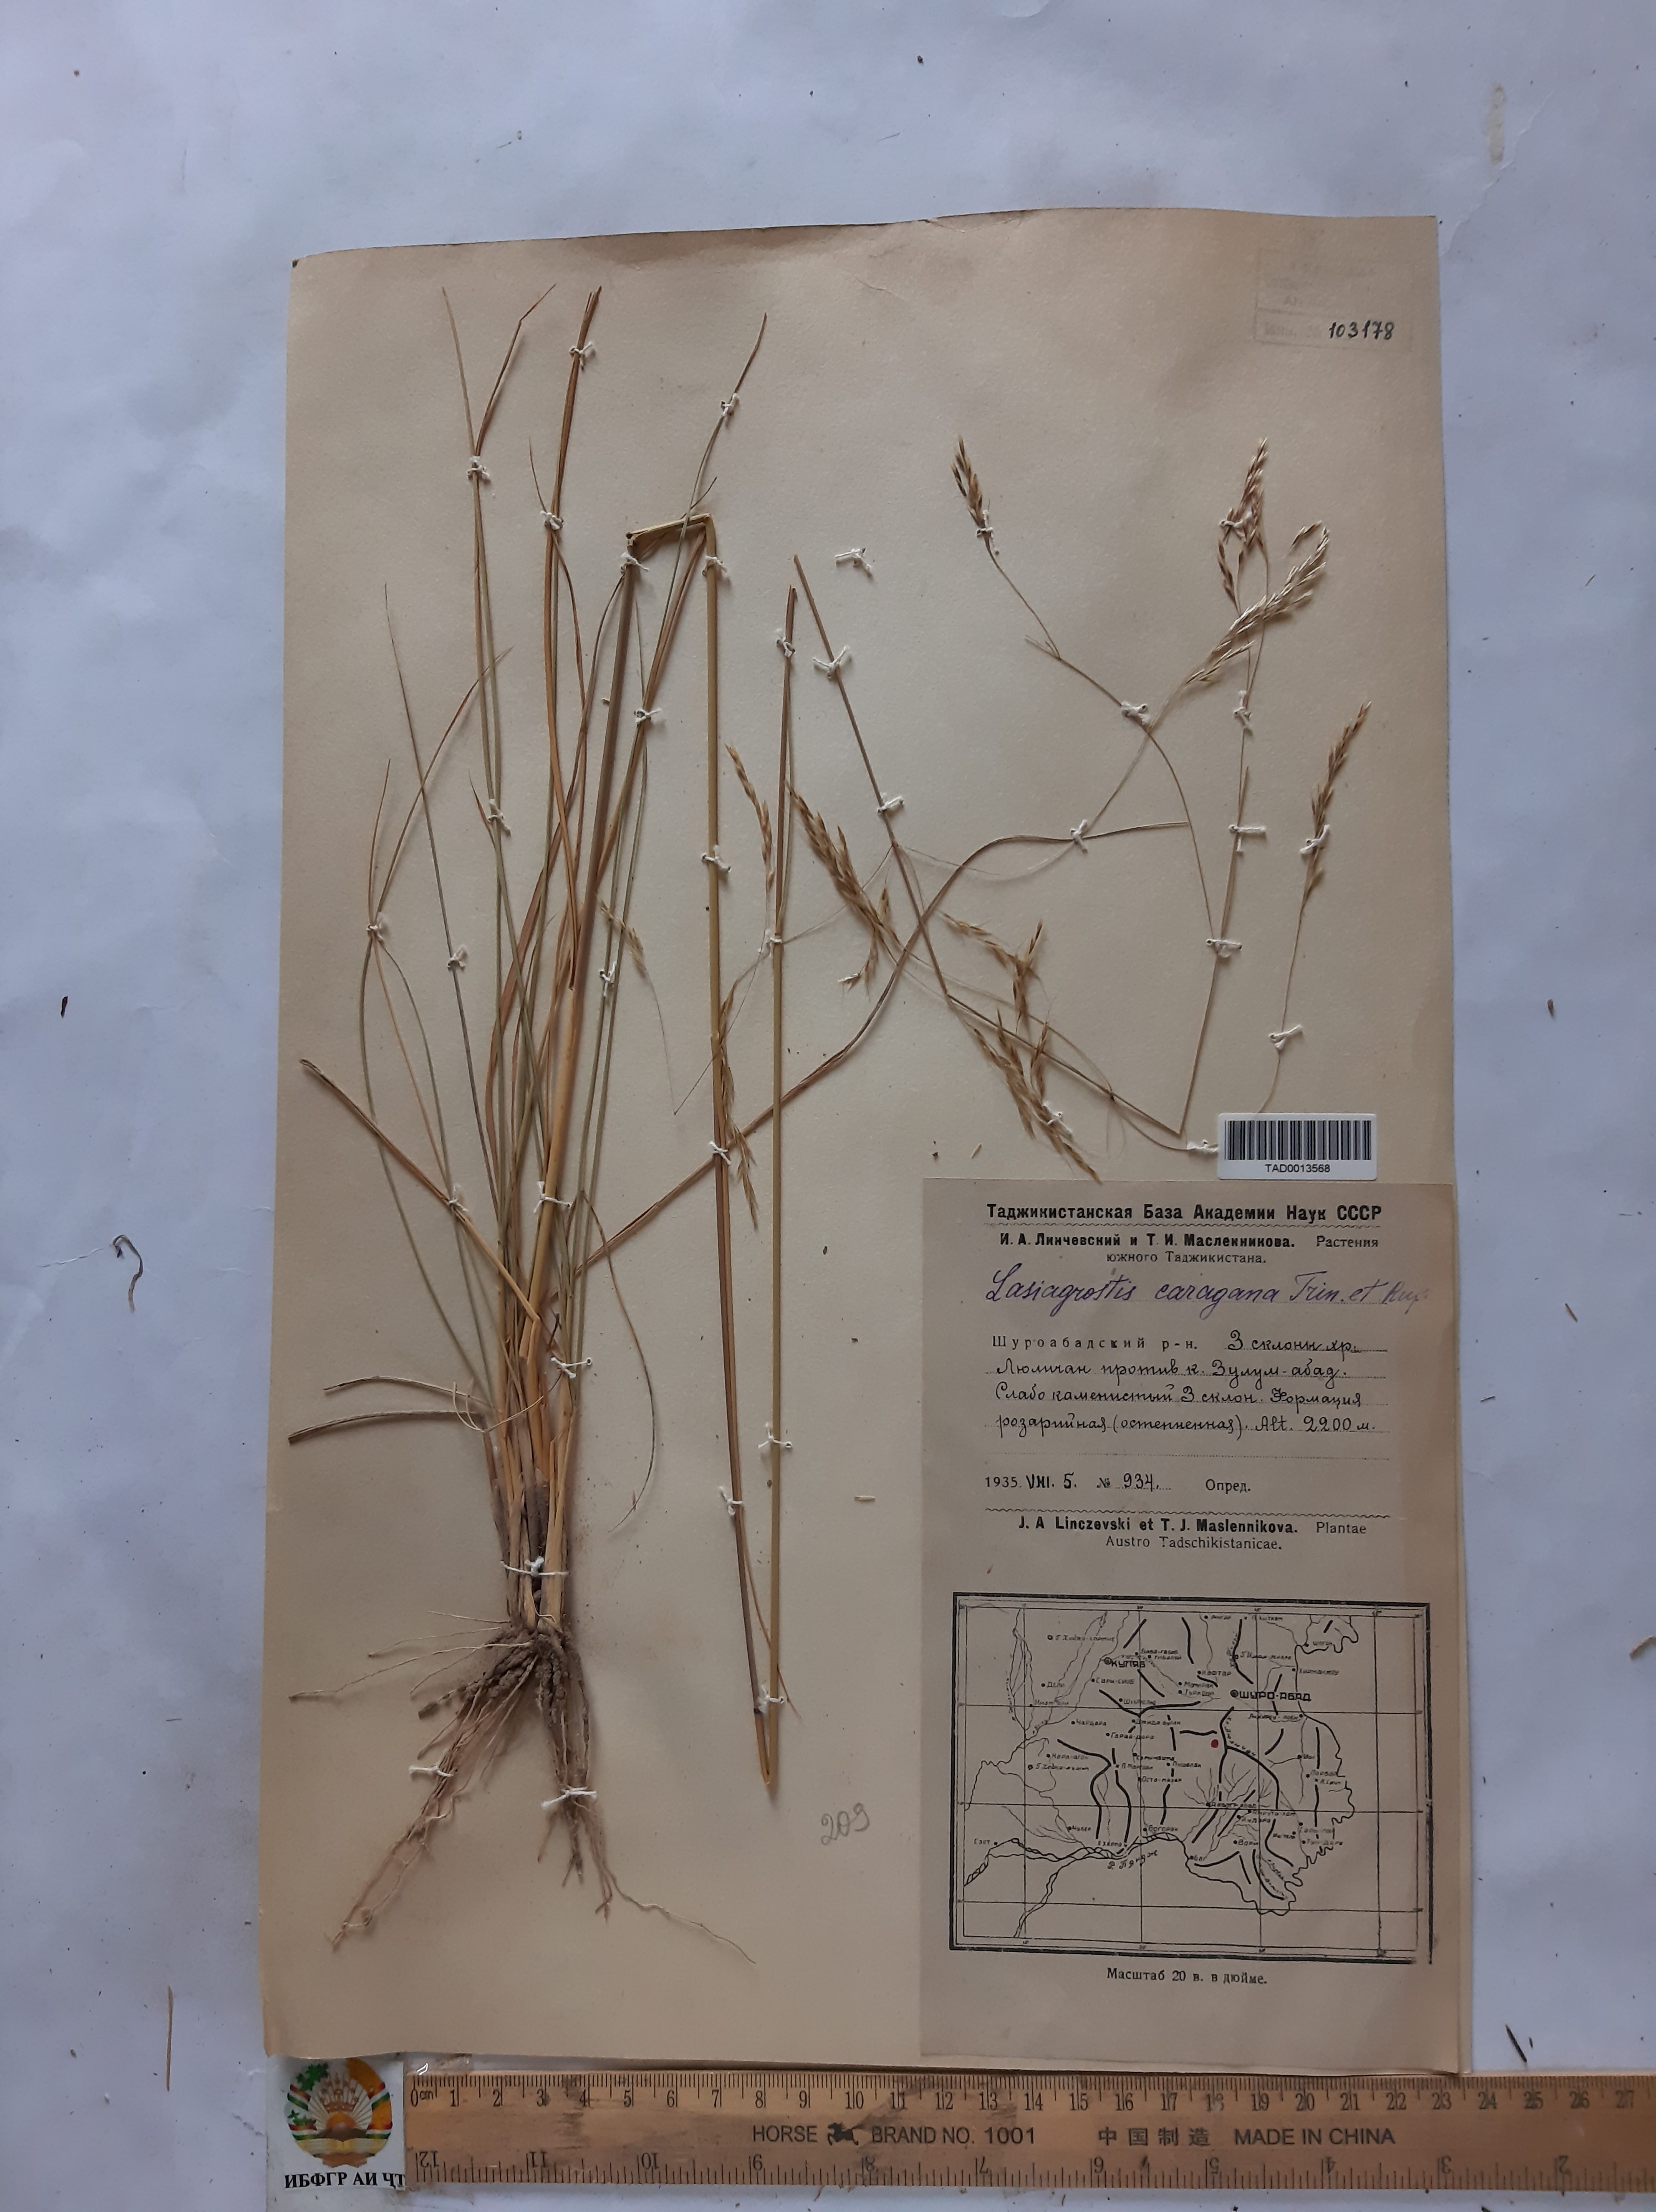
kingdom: Plantae
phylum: Tracheophyta
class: Liliopsida
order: Poales
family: Poaceae
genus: Stipa
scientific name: Stipa conferta
